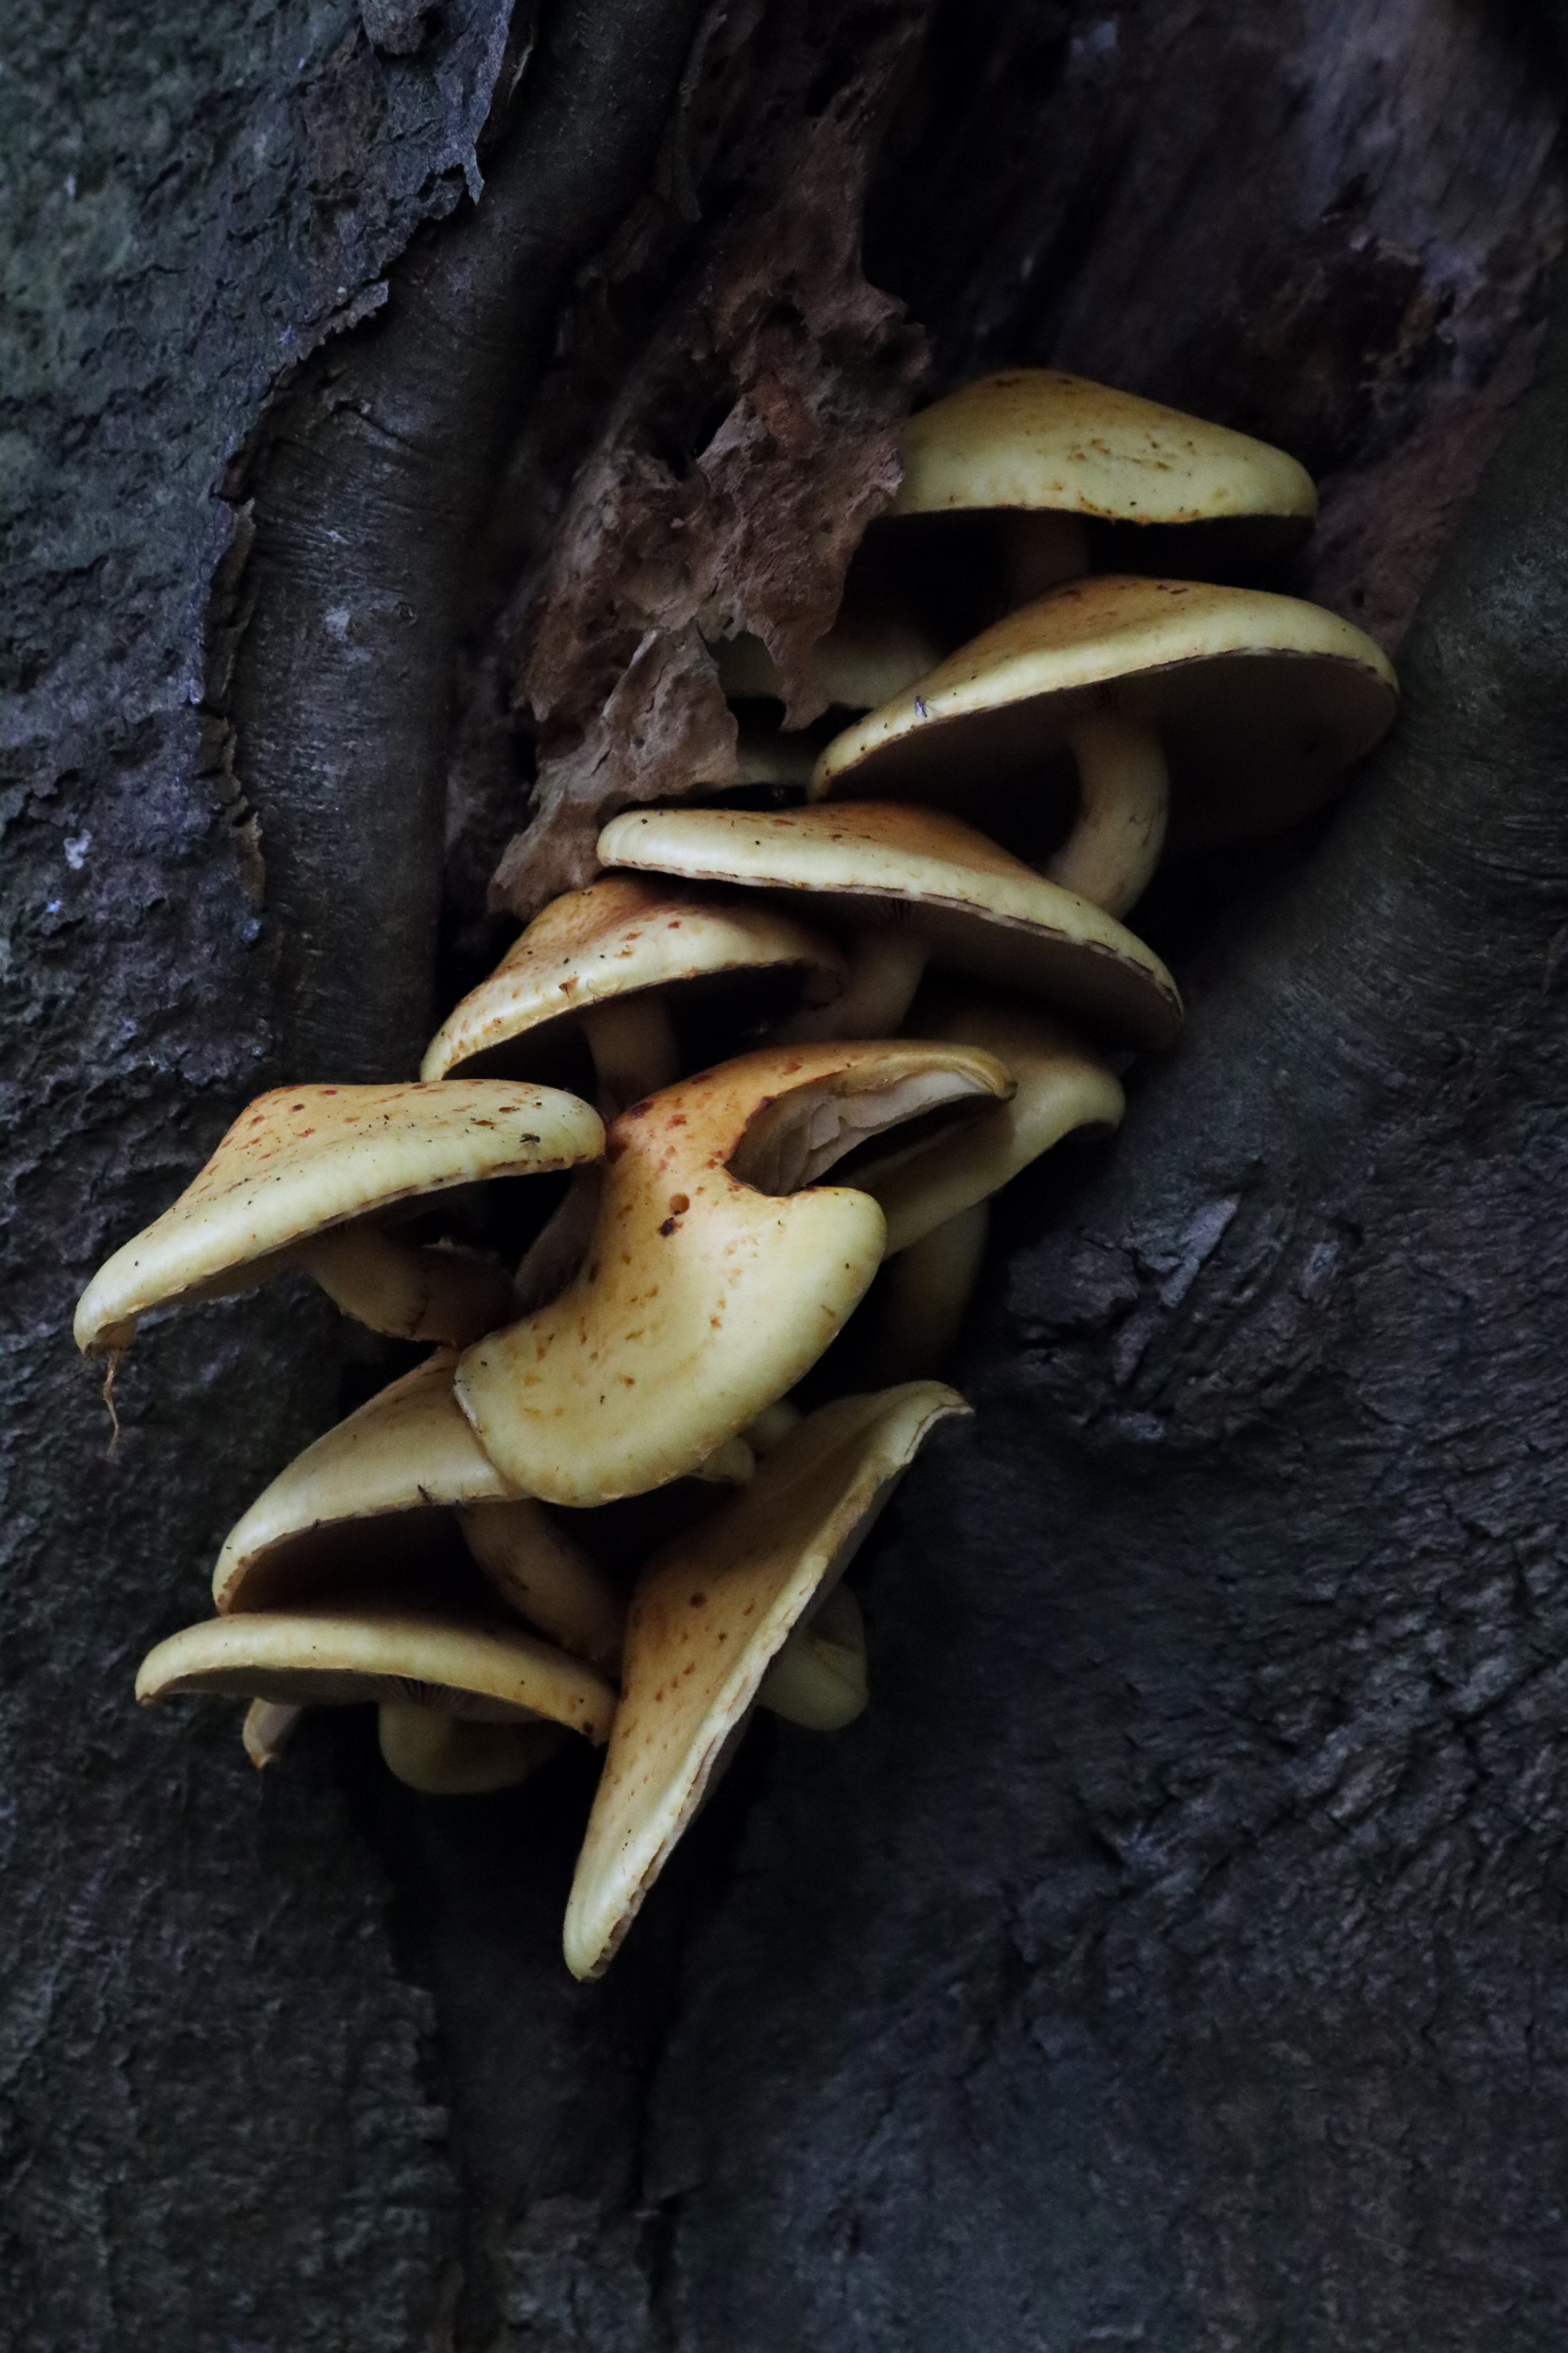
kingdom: Fungi
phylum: Basidiomycota
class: Agaricomycetes
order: Agaricales
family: Strophariaceae
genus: Pholiota
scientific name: Pholiota adiposa
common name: Højtsiddende skælhat
